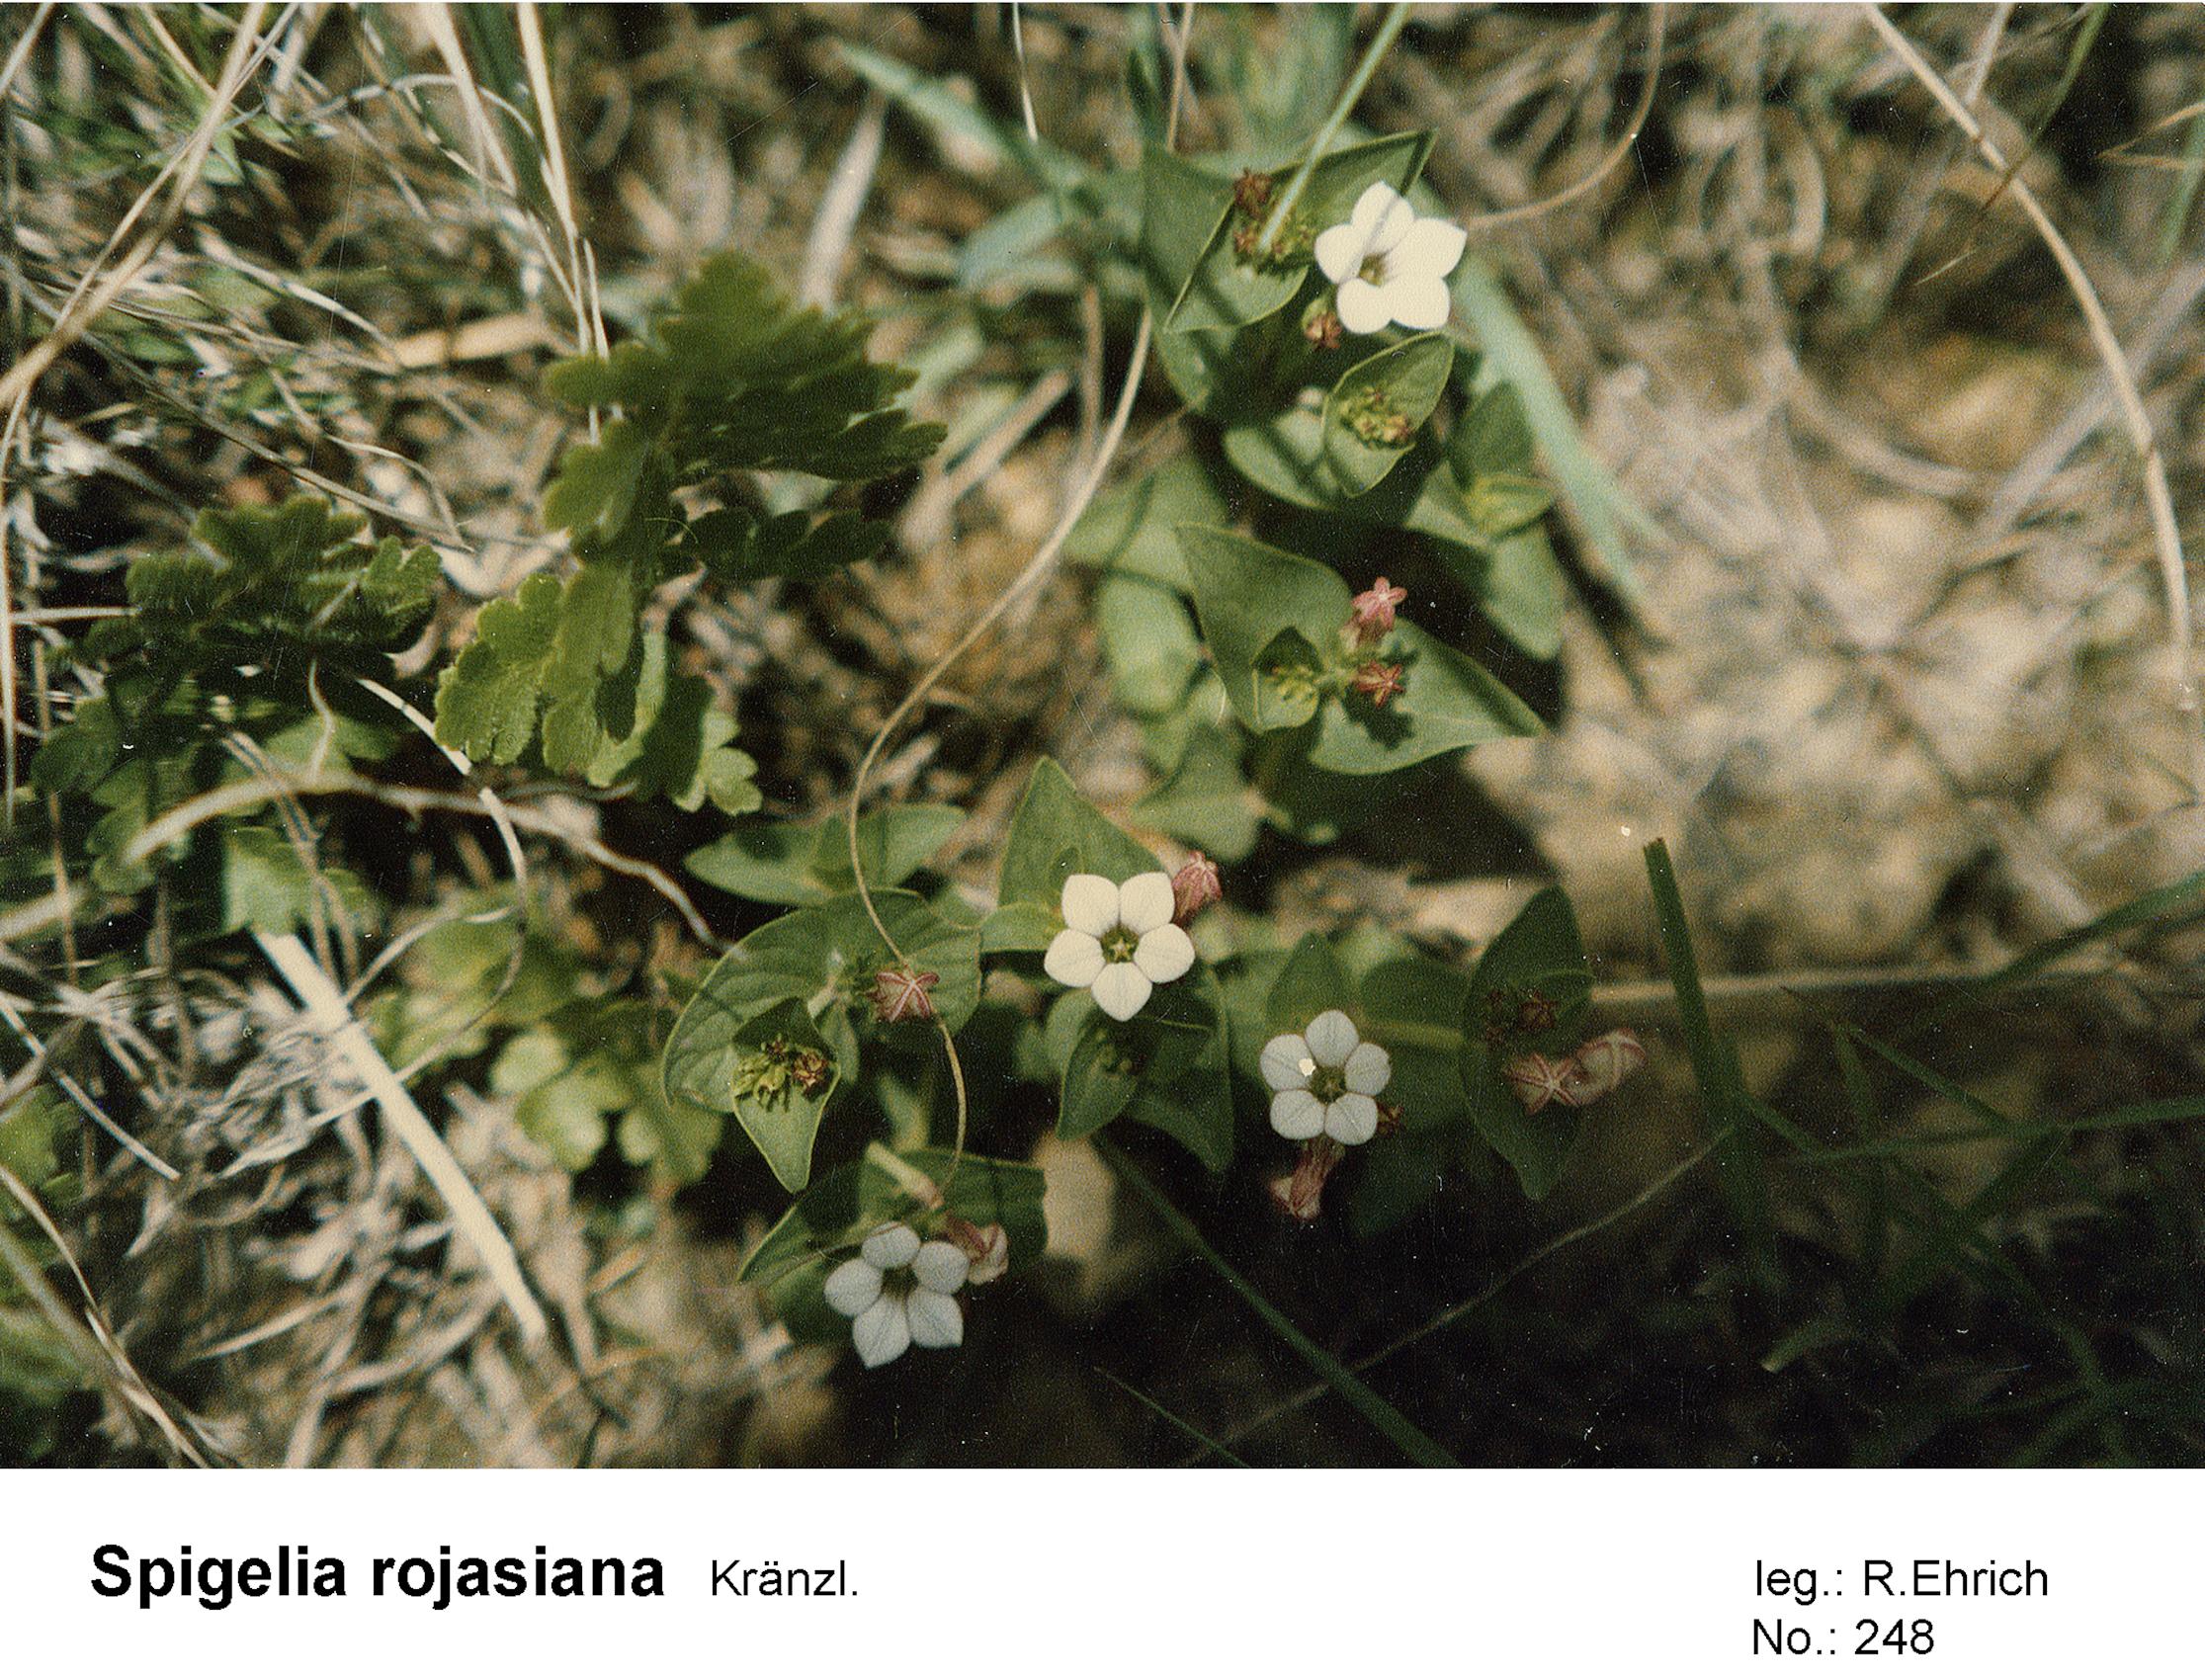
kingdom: Plantae
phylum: Tracheophyta
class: Magnoliopsida
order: Gentianales
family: Loganiaceae
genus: Spigelia
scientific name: Spigelia rojasiana
